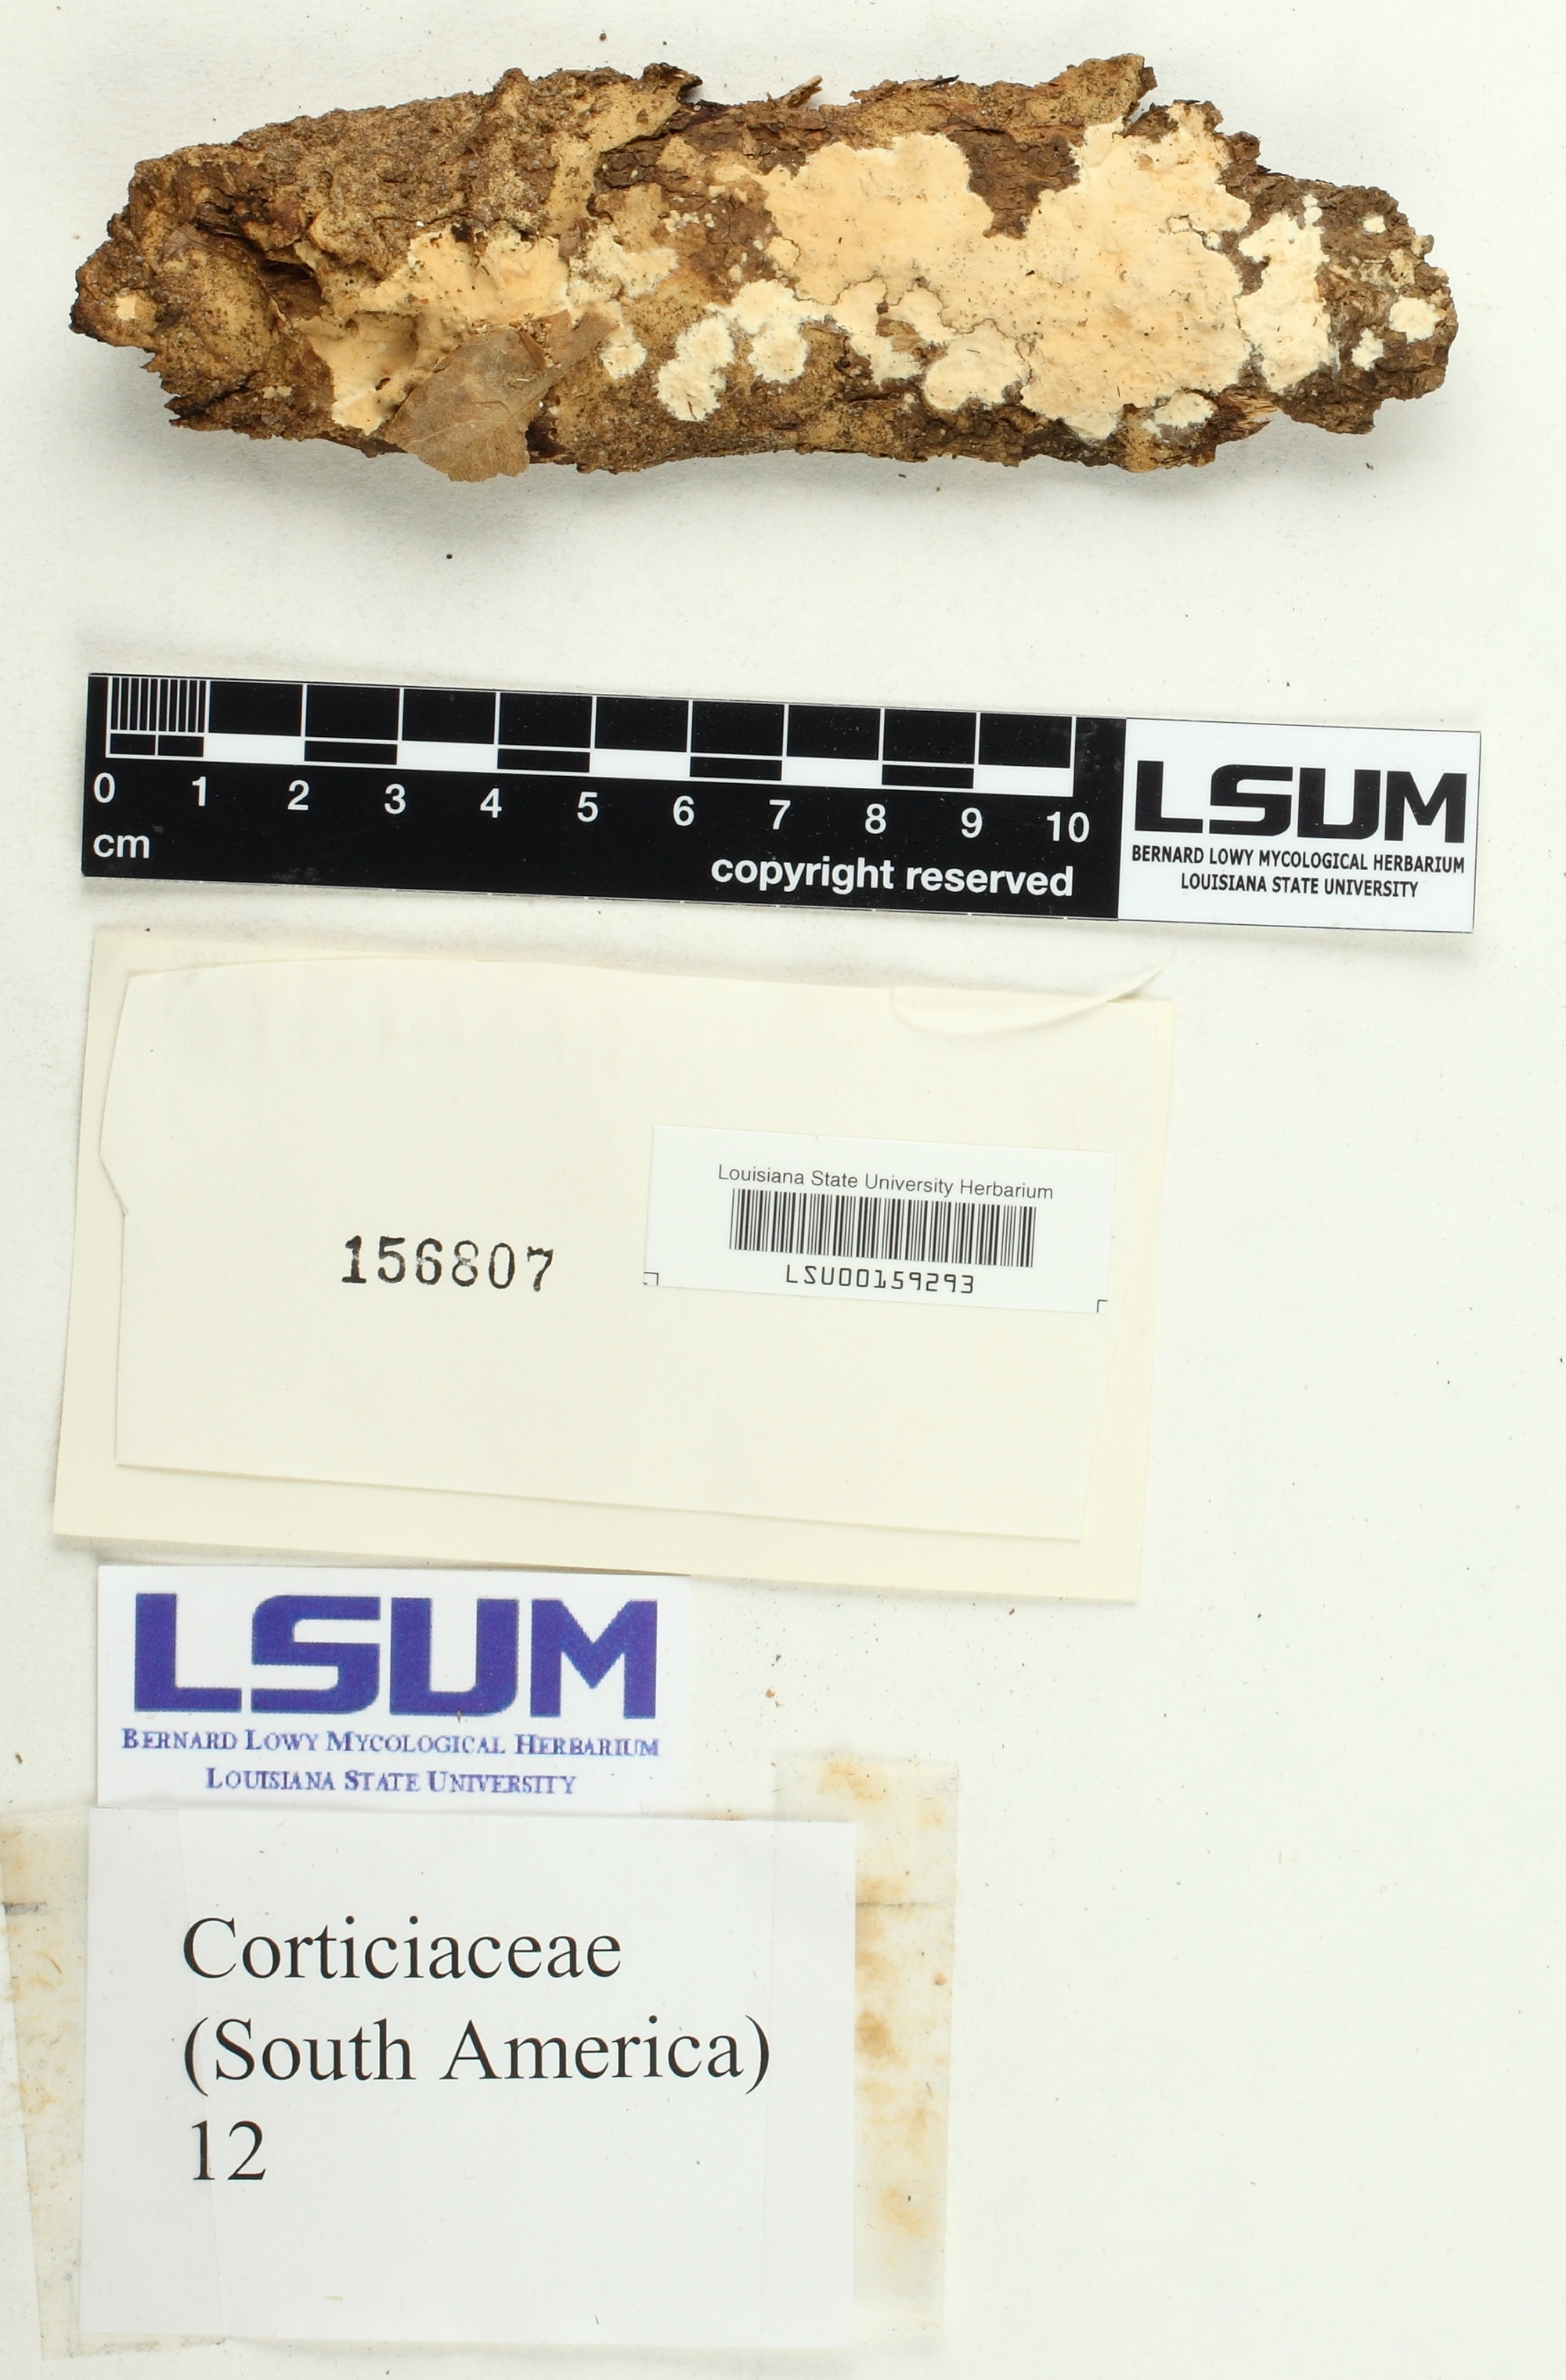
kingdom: Fungi
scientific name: Fungi
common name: Fungi
